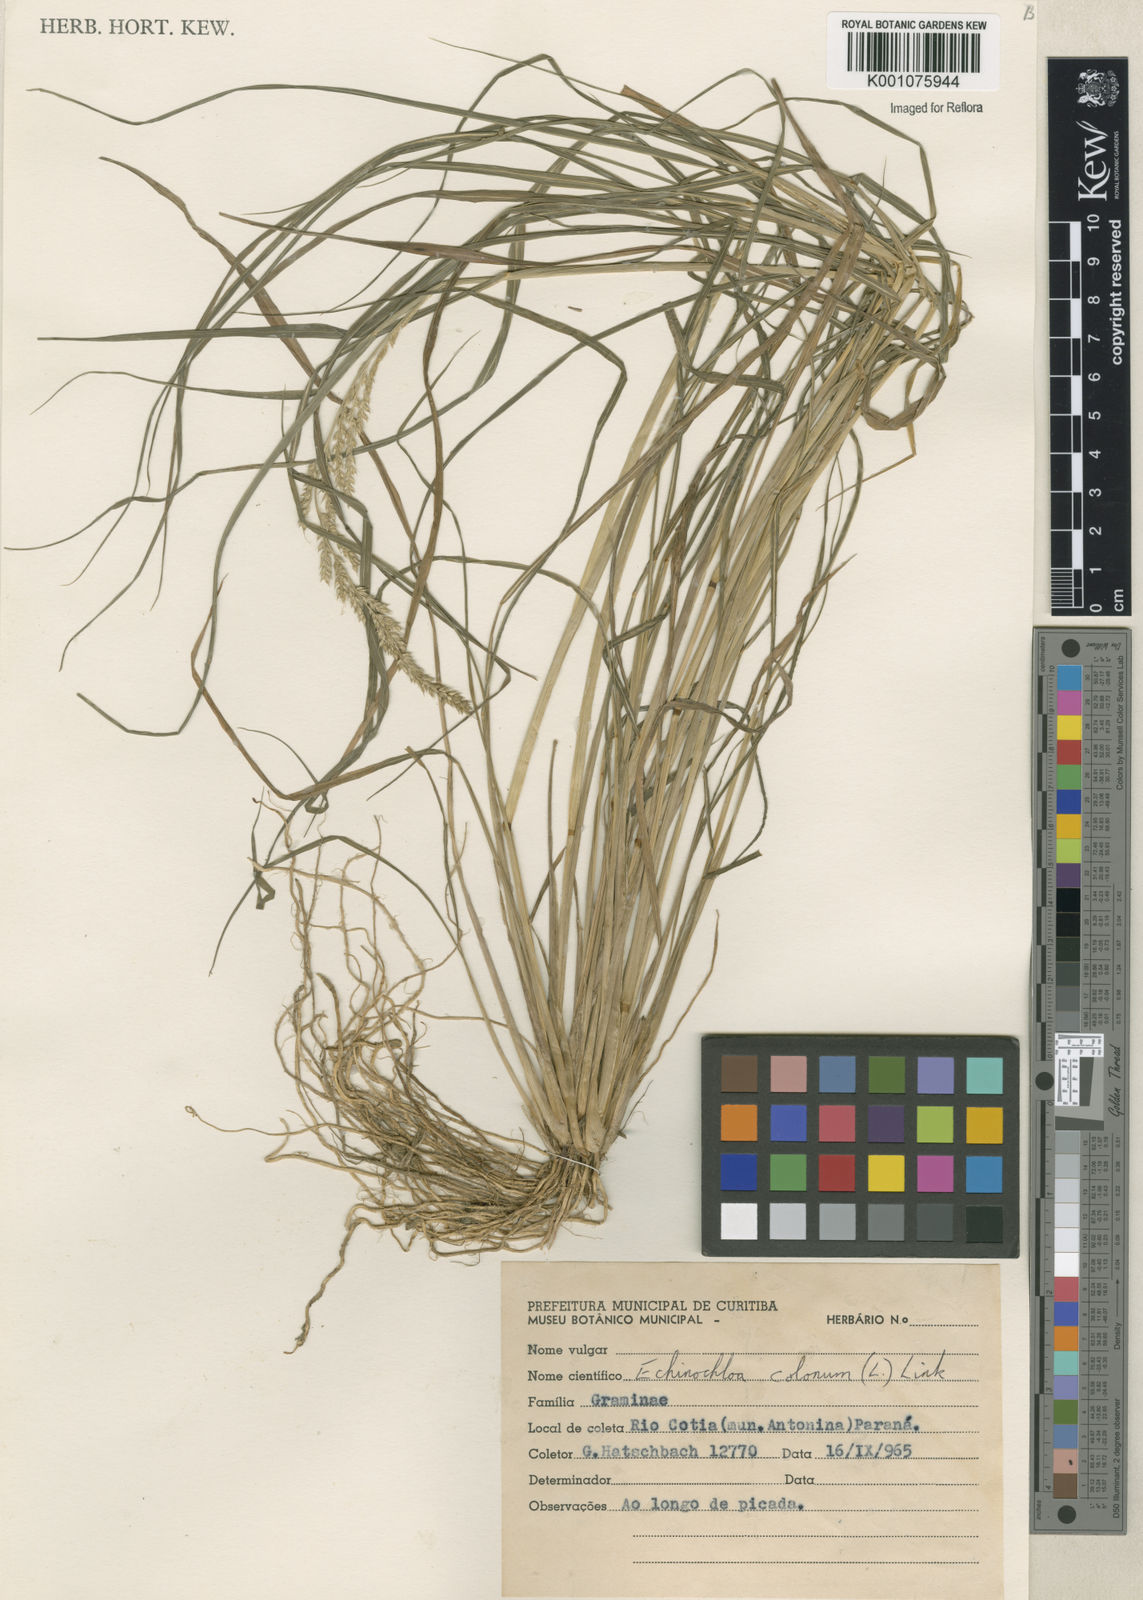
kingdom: Plantae
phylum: Tracheophyta
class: Liliopsida
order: Poales
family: Poaceae
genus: Echinochloa
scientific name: Echinochloa crus-pavonis
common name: Gulf cockspur grass
